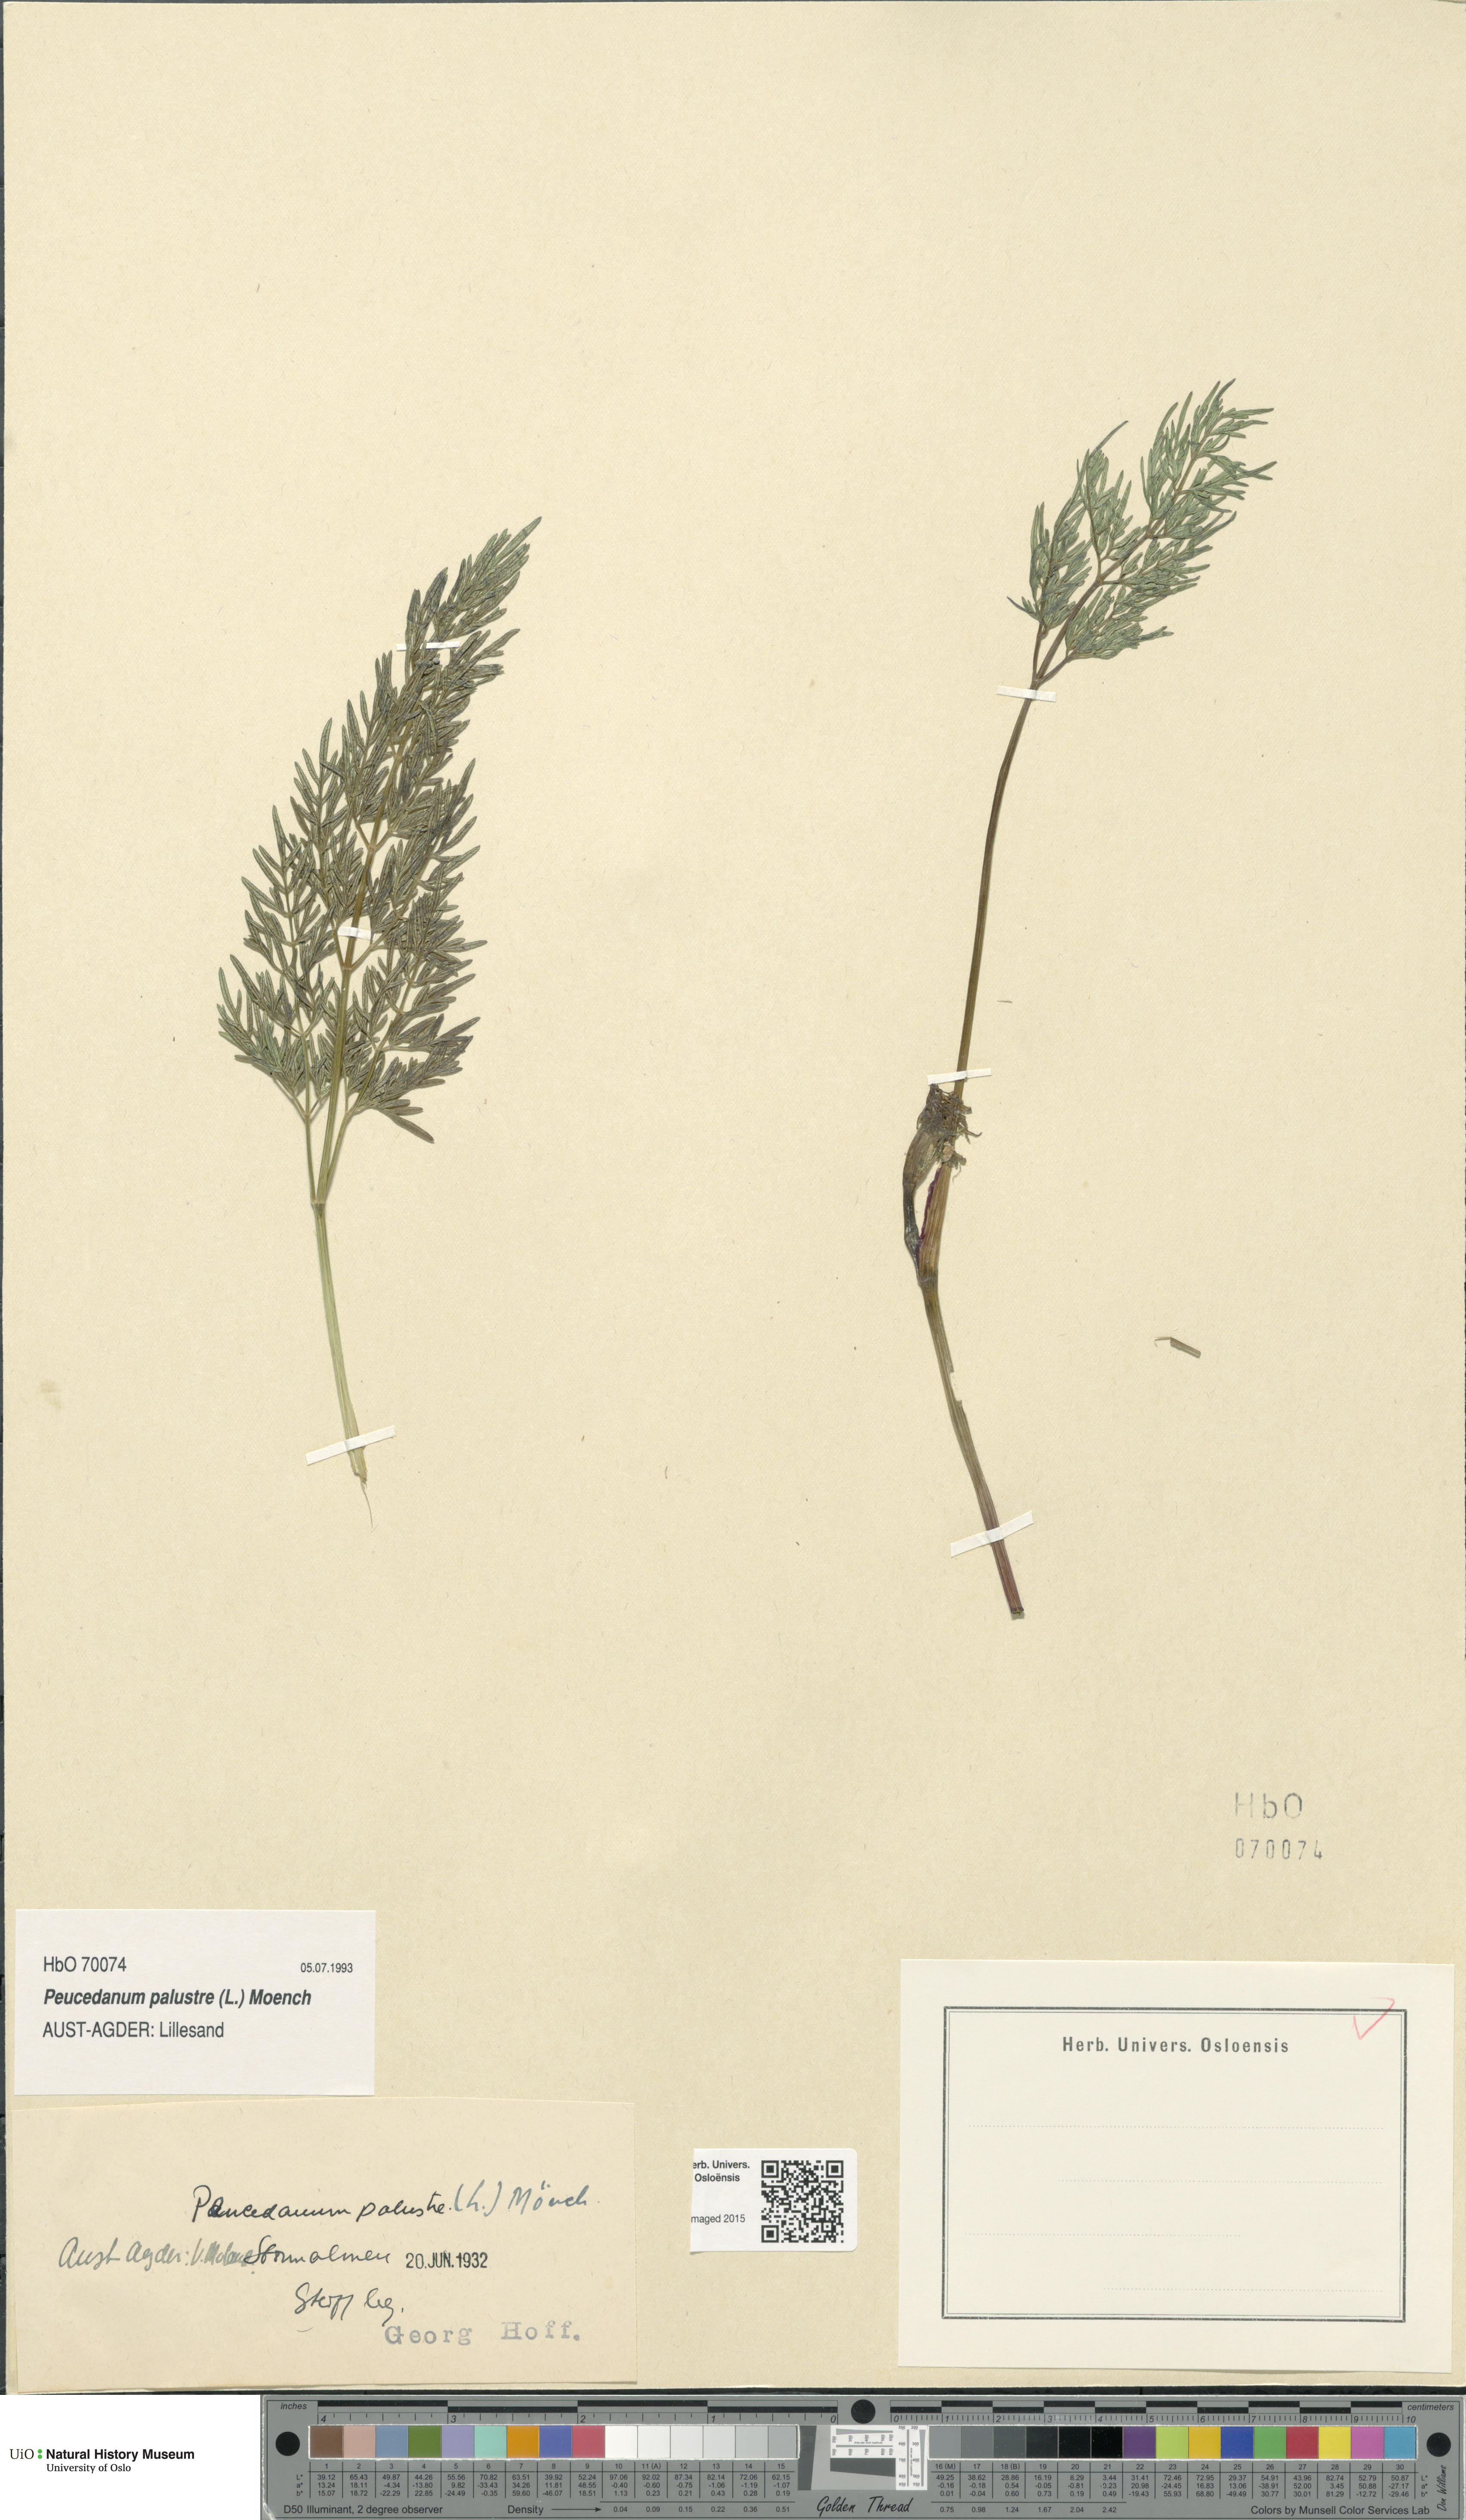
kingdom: Plantae
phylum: Tracheophyta
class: Magnoliopsida
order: Apiales
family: Apiaceae
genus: Thysselinum
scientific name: Thysselinum palustre
